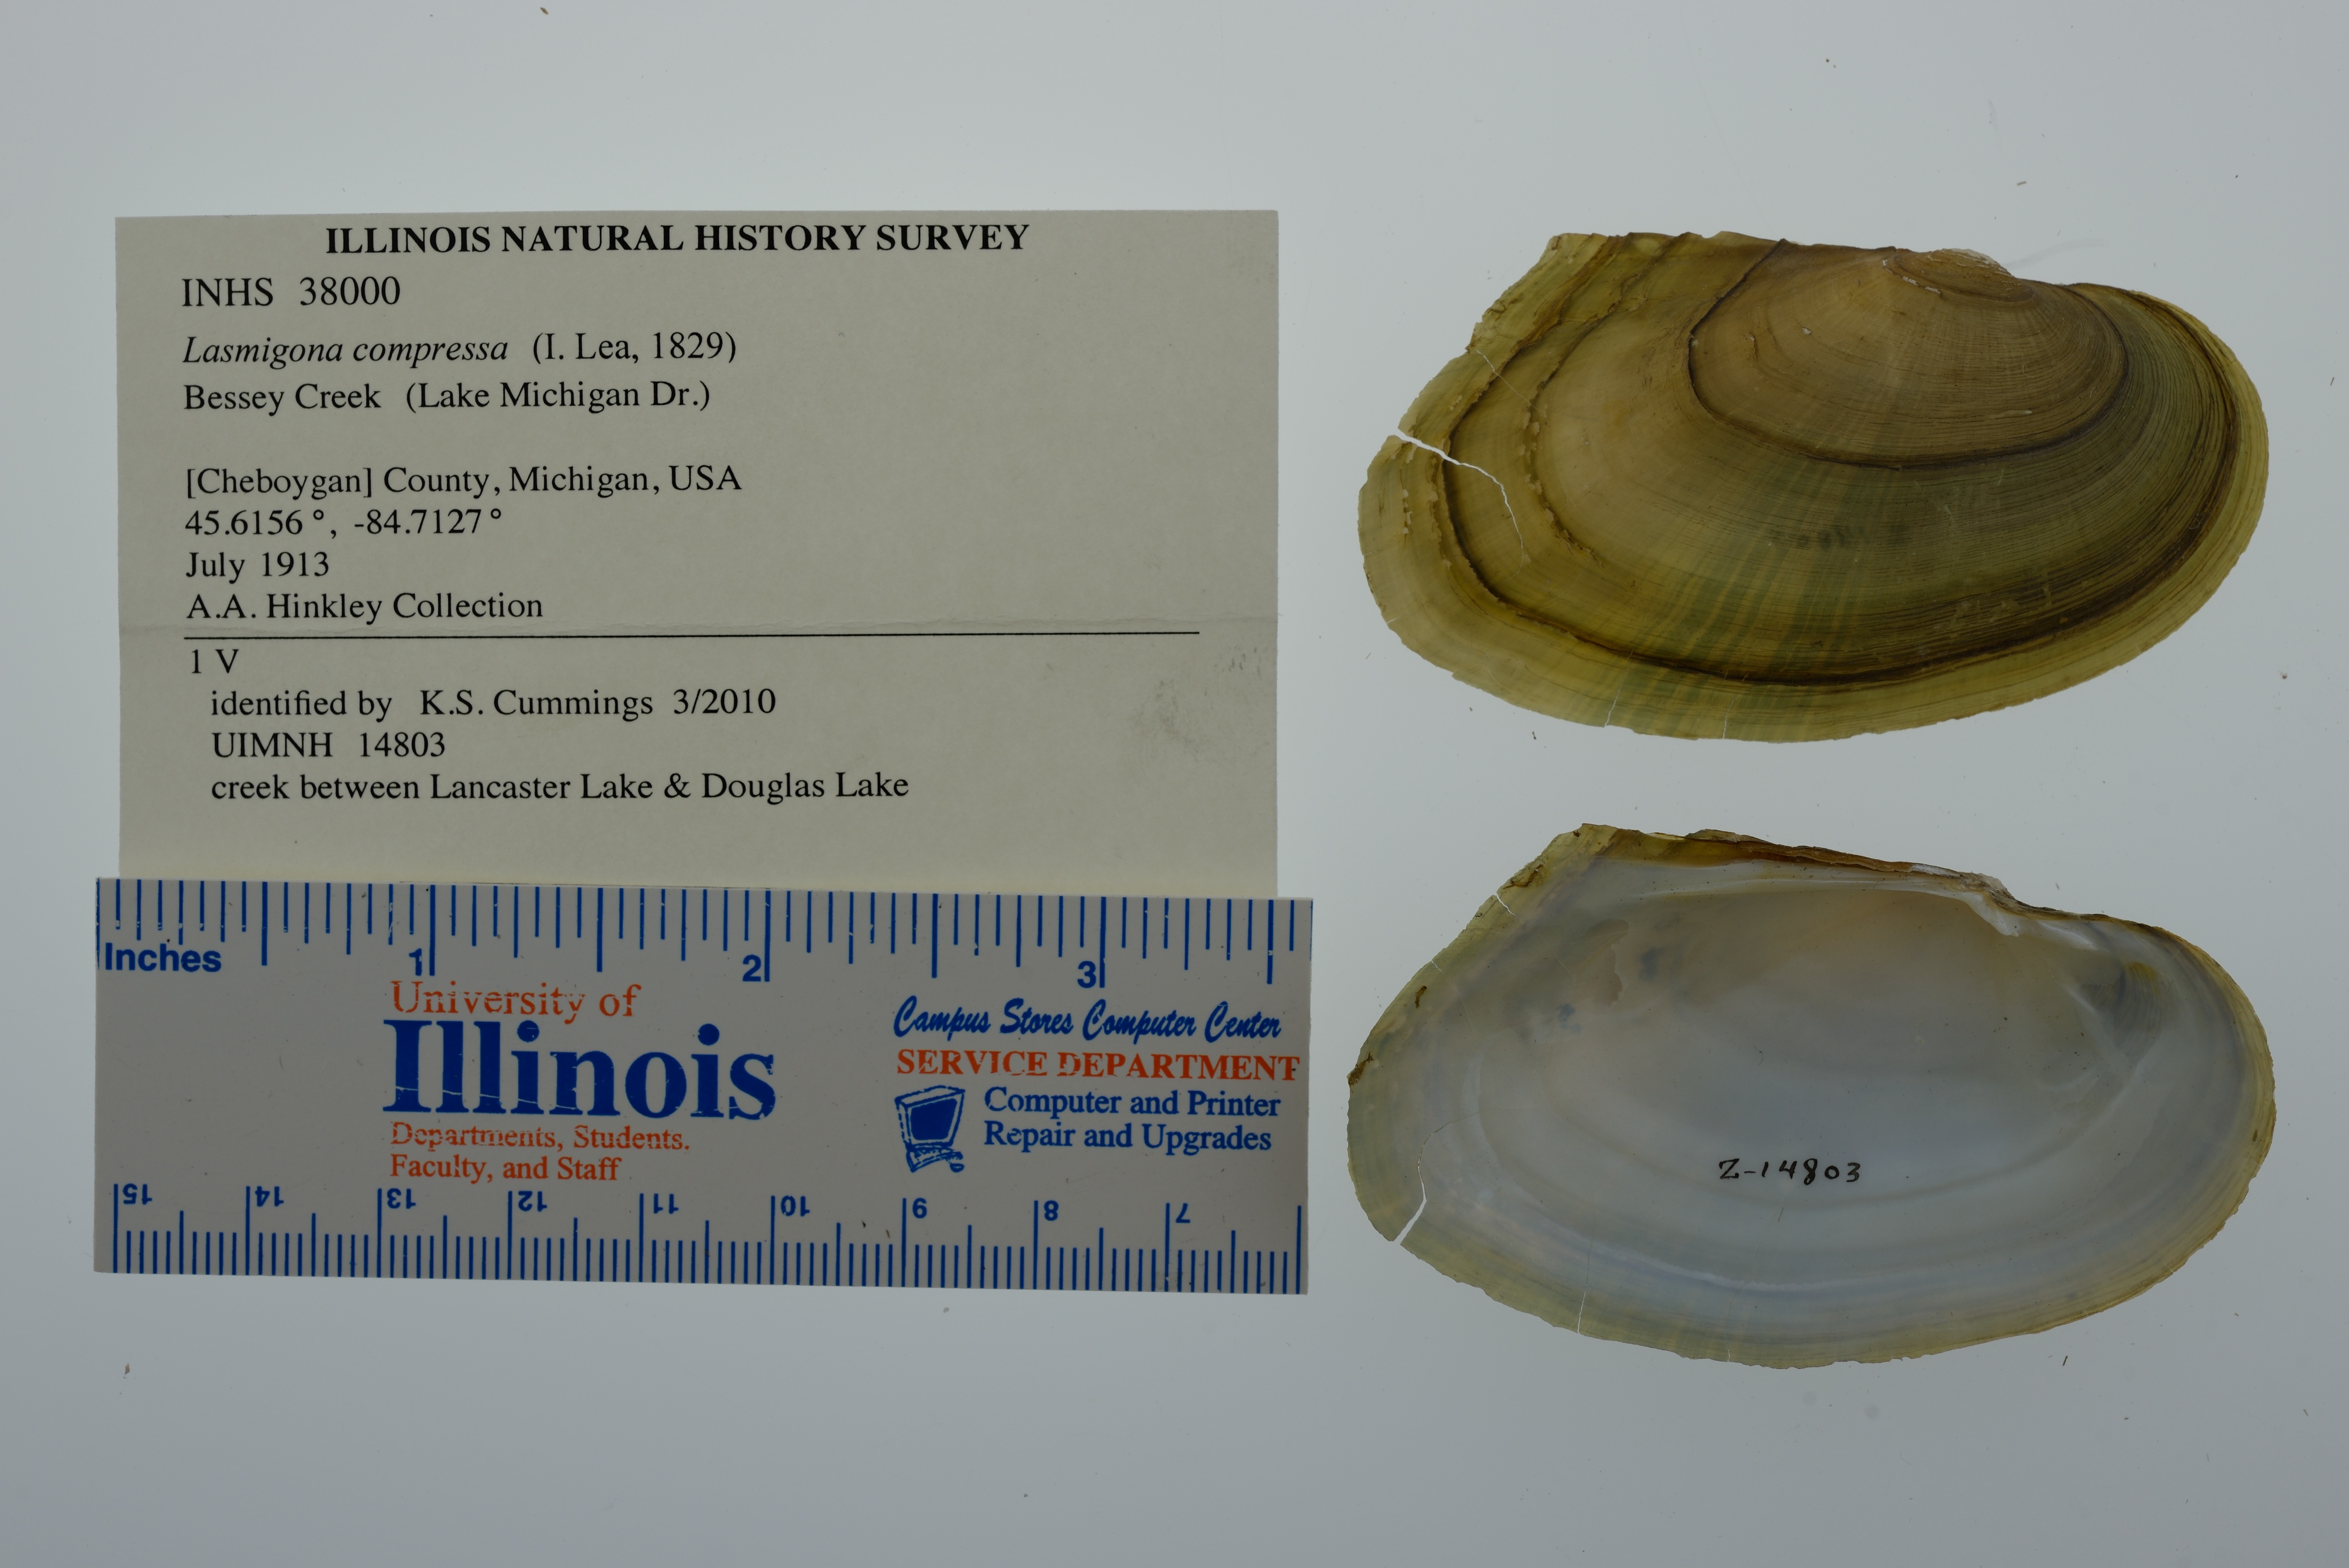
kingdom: Animalia
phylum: Mollusca
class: Bivalvia
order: Unionida
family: Unionidae
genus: Lasmigona
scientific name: Lasmigona compressa
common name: Creek heelsplitter
